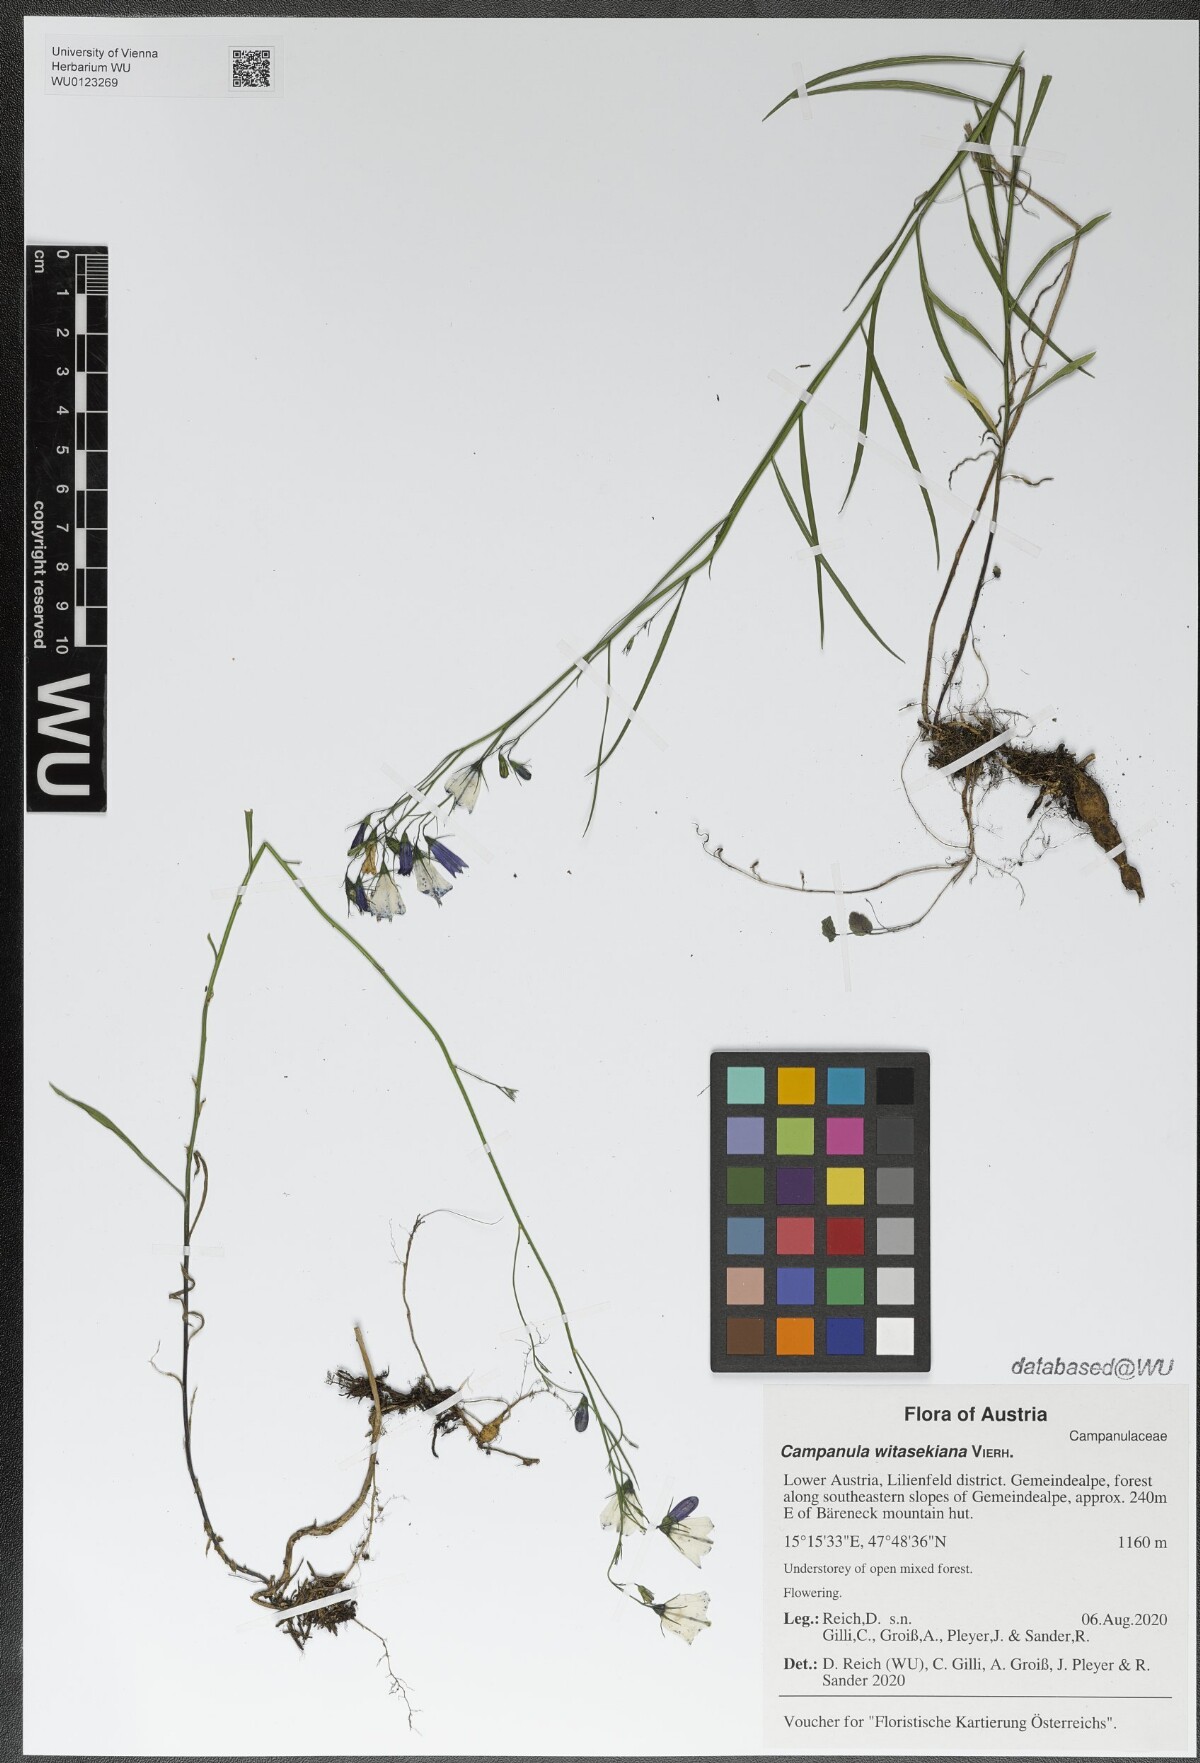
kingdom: Plantae
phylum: Tracheophyta
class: Magnoliopsida
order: Asterales
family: Campanulaceae
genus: Campanula
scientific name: Campanula witasekiana
